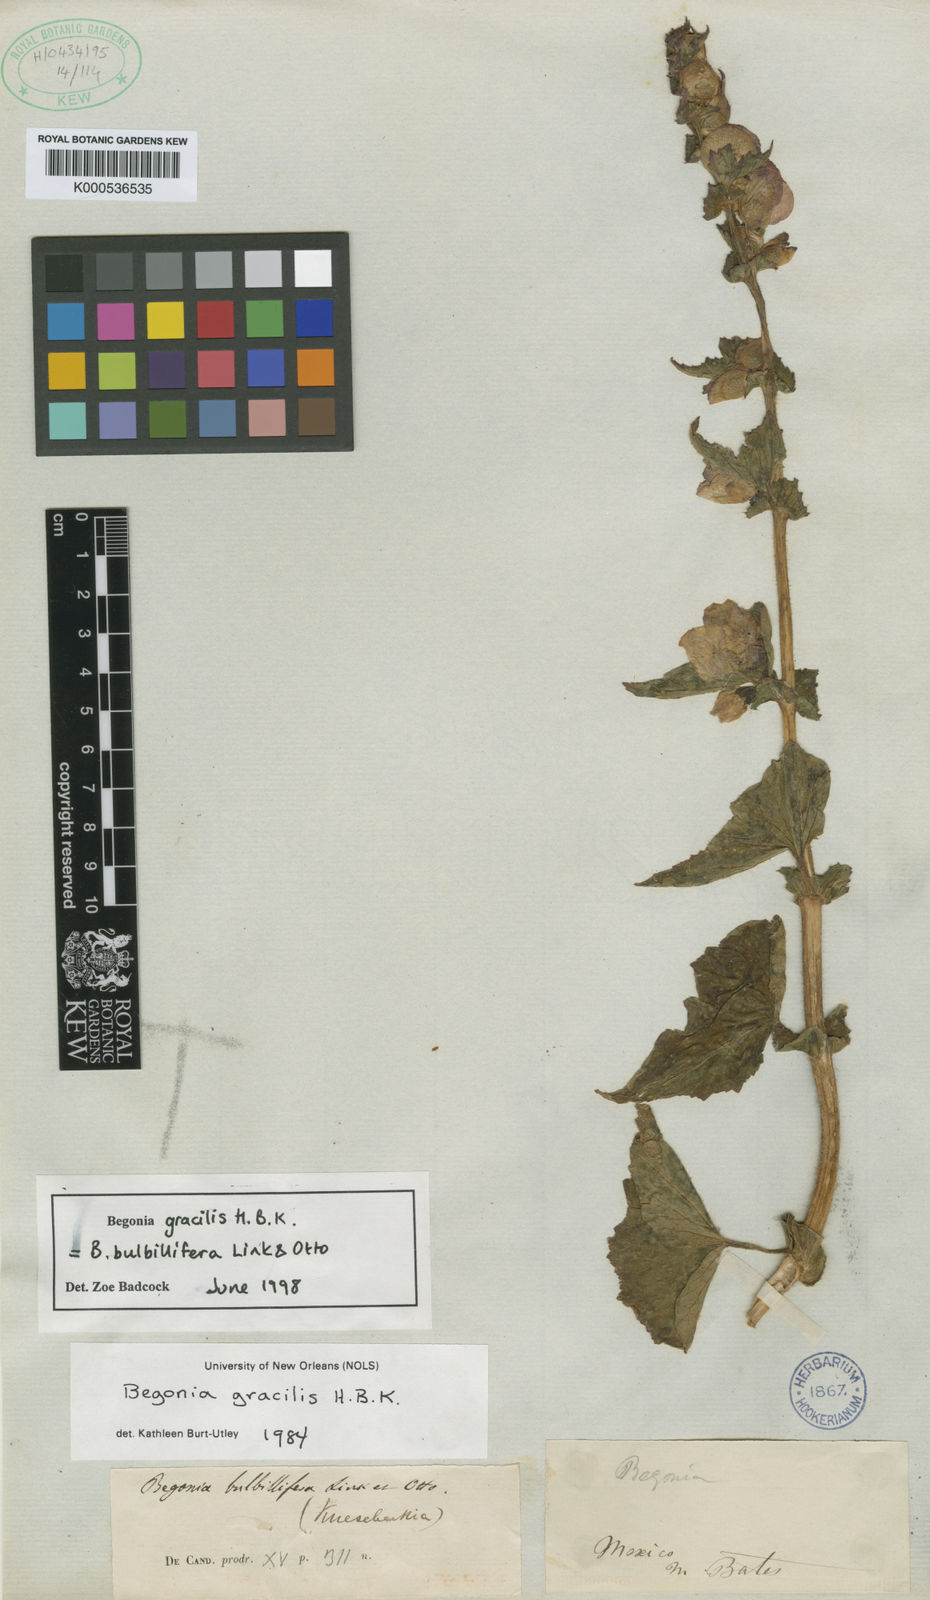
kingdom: Plantae
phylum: Tracheophyta
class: Magnoliopsida
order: Cucurbitales
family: Begoniaceae
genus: Begonia
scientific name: Begonia bulbillifera
